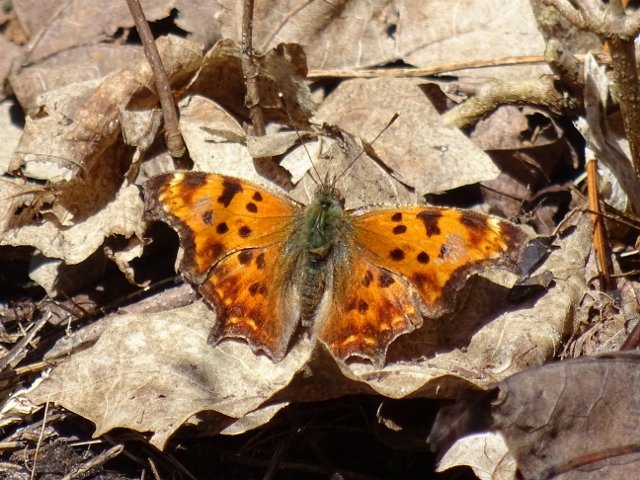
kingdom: Animalia
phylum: Arthropoda
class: Insecta
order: Lepidoptera
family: Nymphalidae
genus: Polygonia
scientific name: Polygonia comma
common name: Eastern Comma
